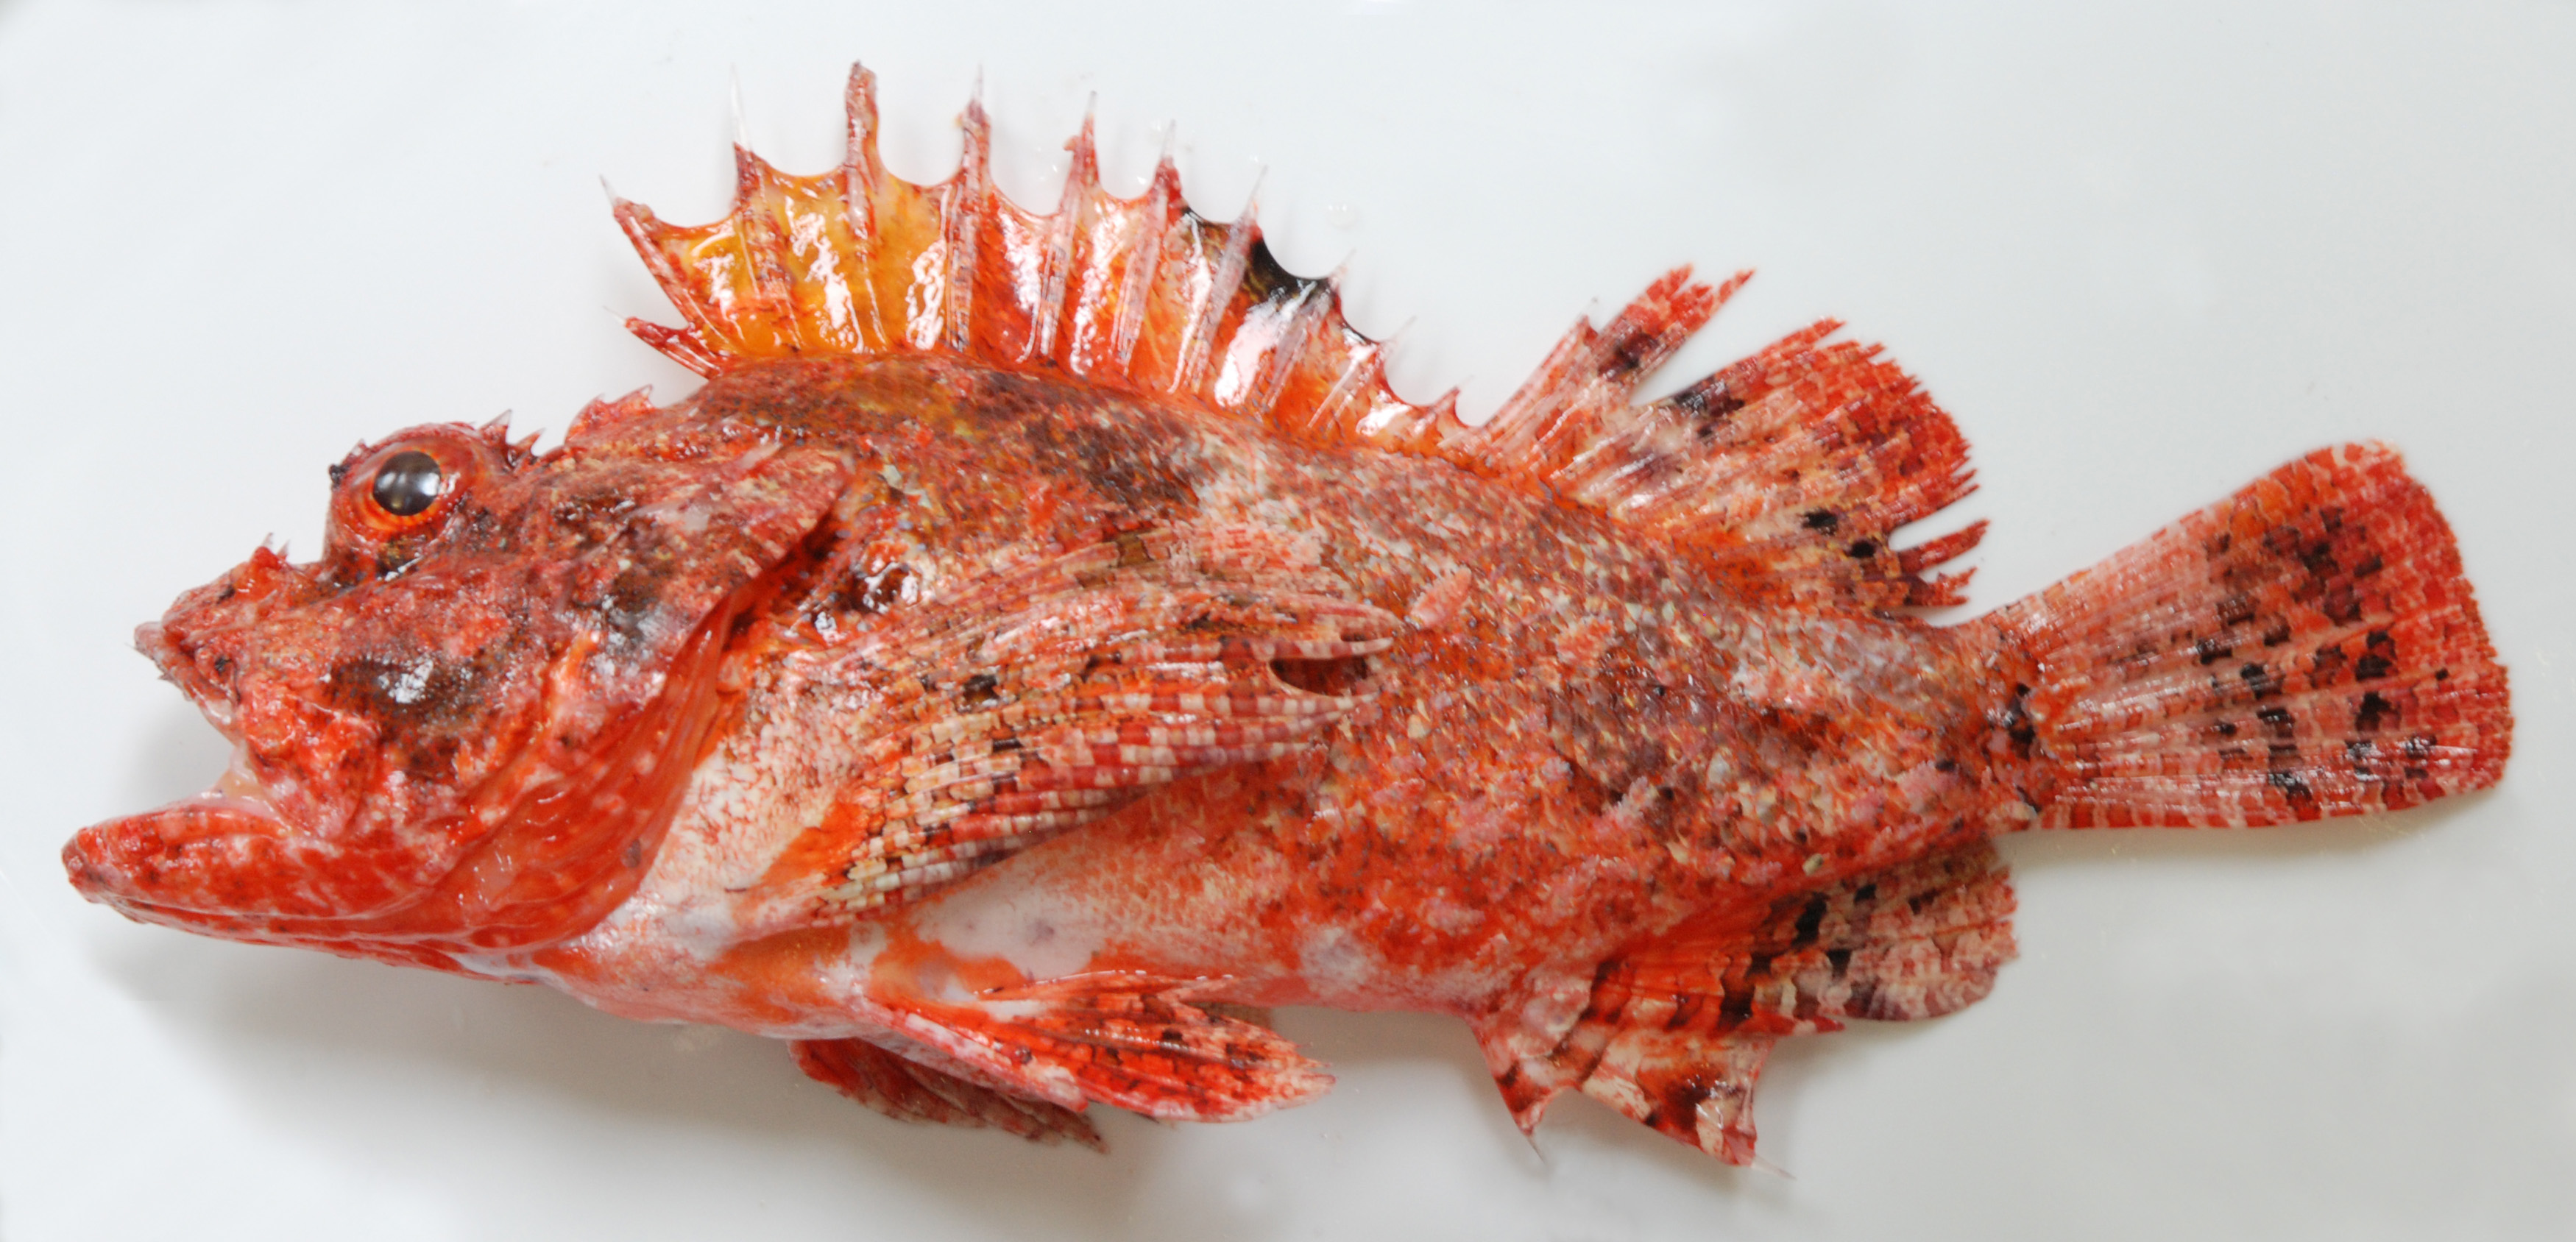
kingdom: Animalia
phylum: Chordata
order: Scorpaeniformes
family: Scorpaenidae
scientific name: Scorpaenidae
